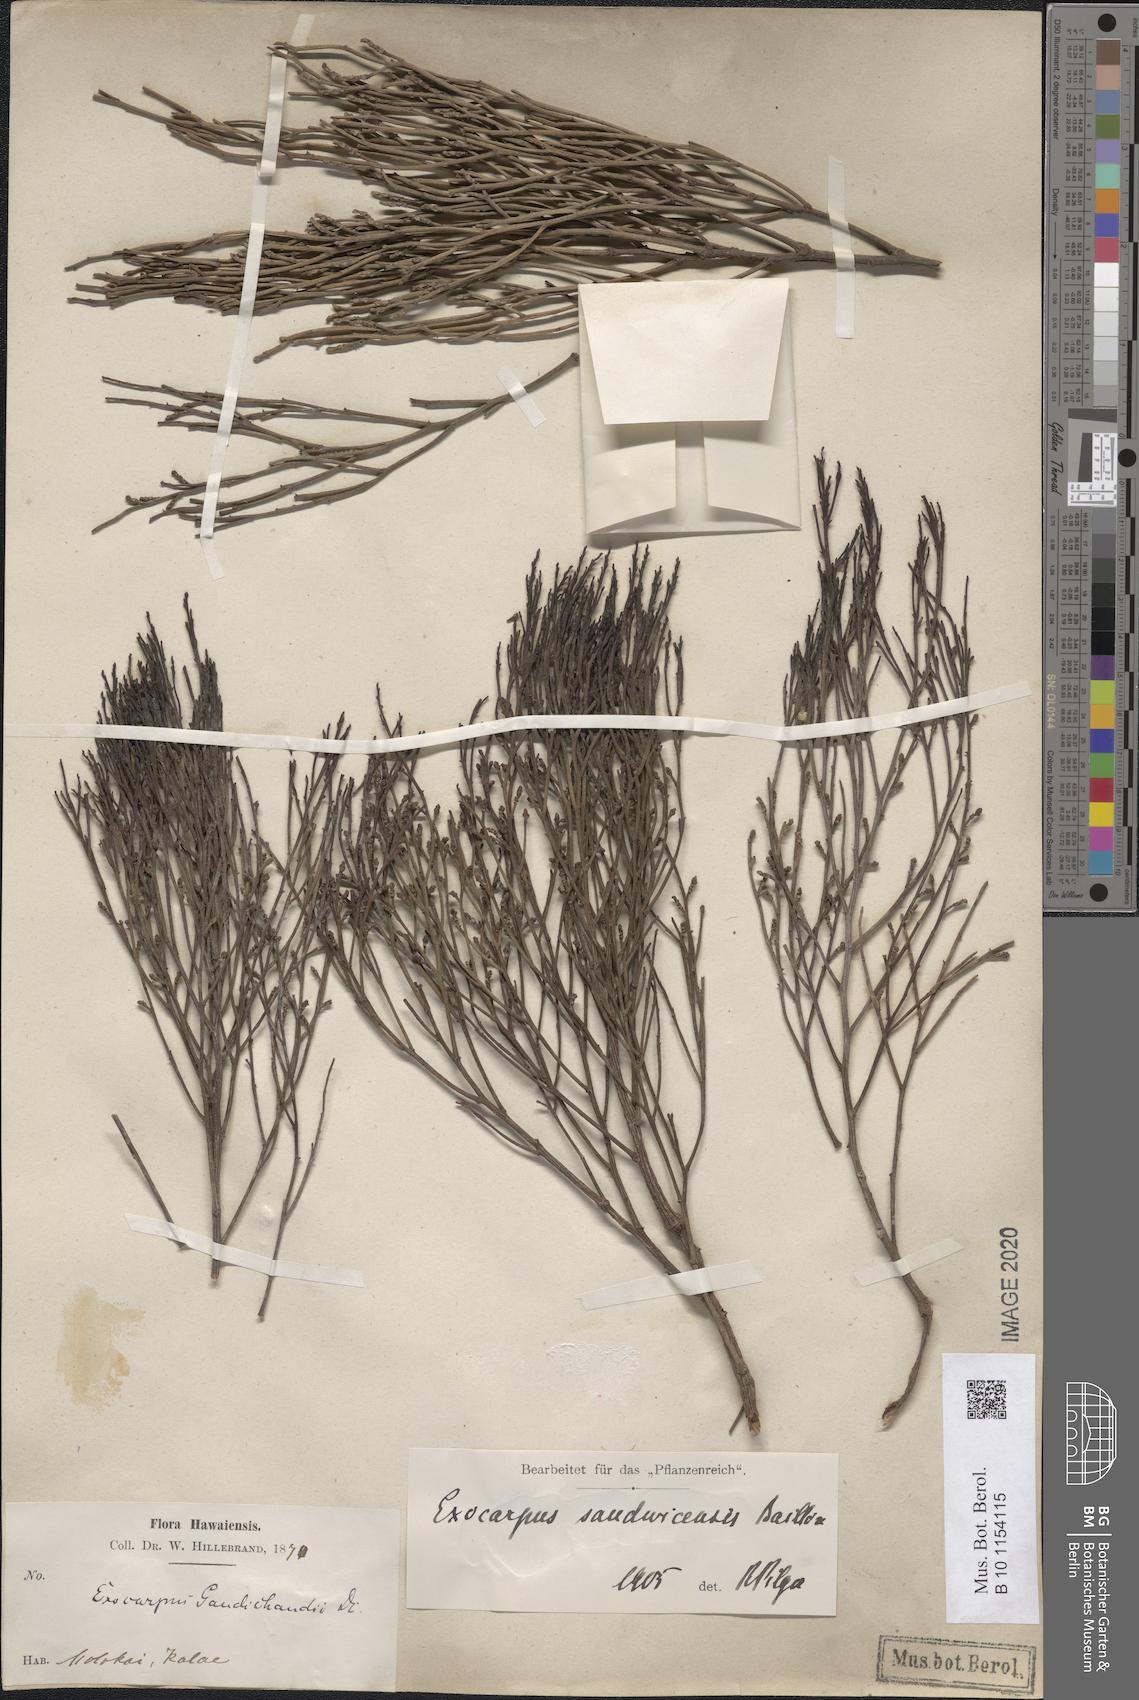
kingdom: Plantae
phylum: Tracheophyta
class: Magnoliopsida
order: Santalales
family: Santalaceae
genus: Exocarpos
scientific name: Exocarpos sandvicensis
